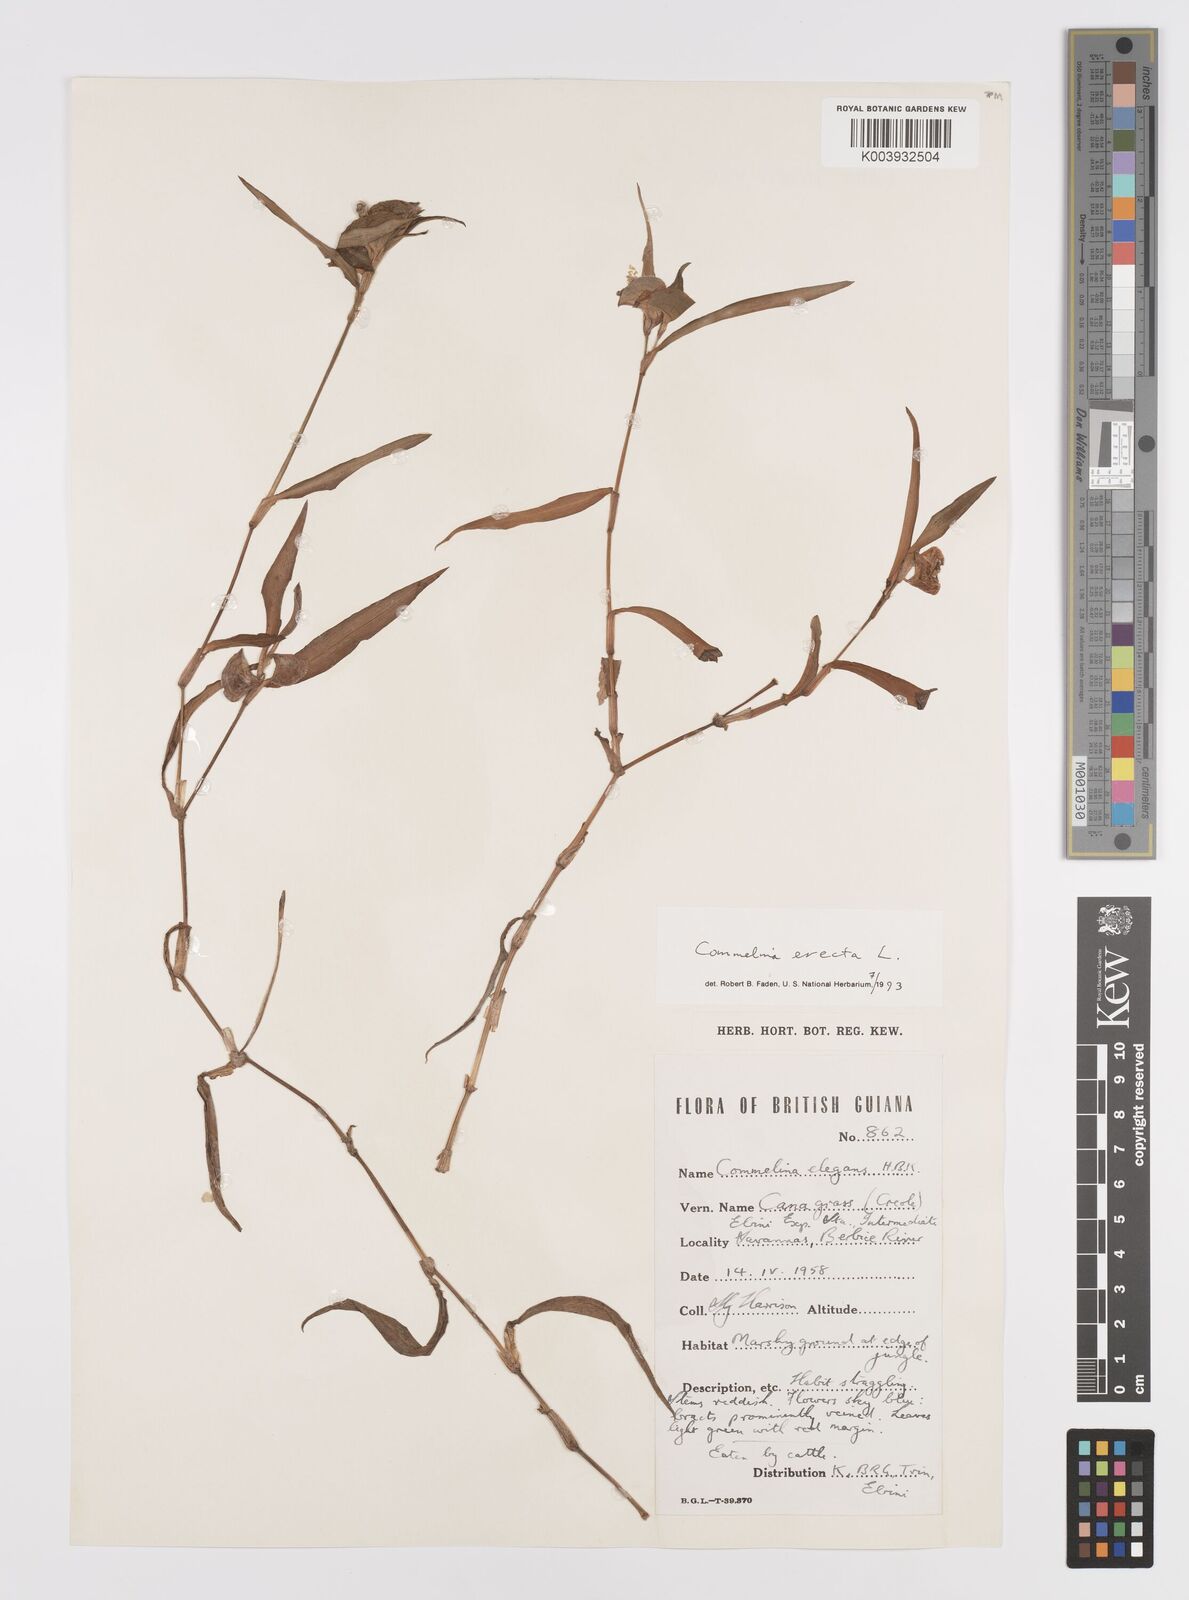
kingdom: Plantae
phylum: Tracheophyta
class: Liliopsida
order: Commelinales
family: Commelinaceae
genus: Commelina
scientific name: Commelina erecta
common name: Blousel blommetjie
